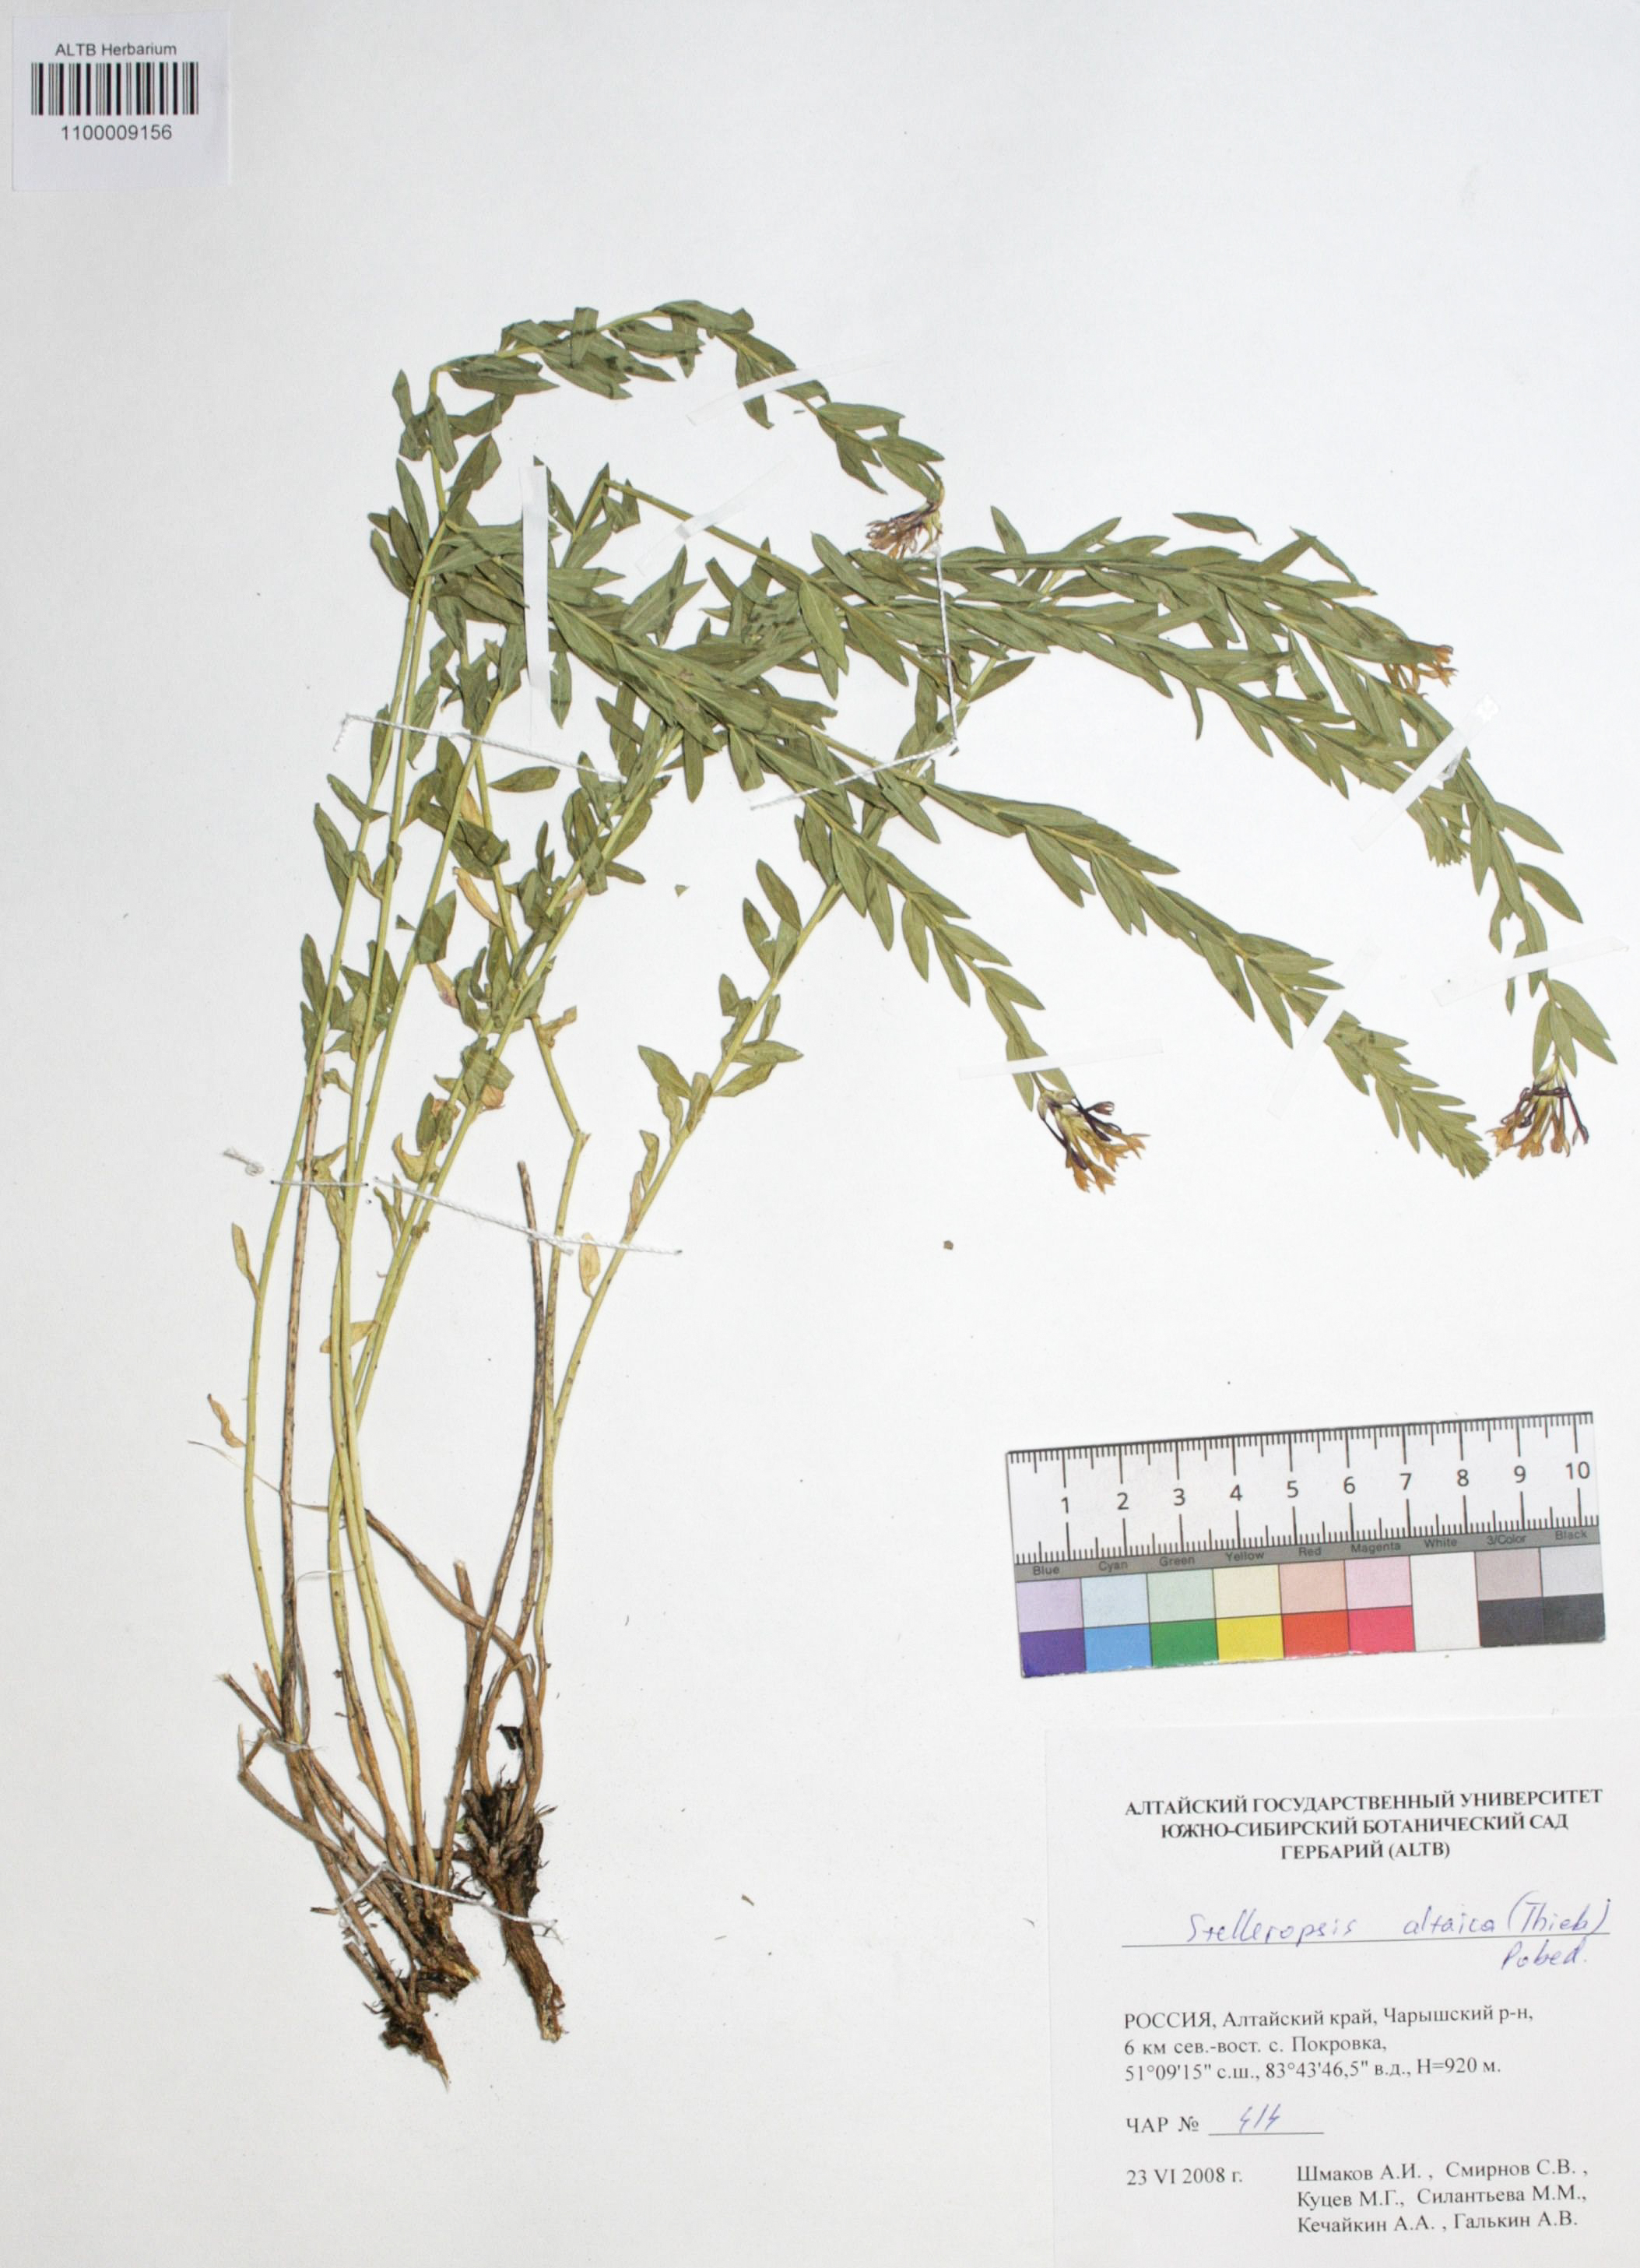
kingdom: Plantae
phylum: Tracheophyta
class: Magnoliopsida
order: Malvales
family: Thymelaeaceae
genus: Diarthron
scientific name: Diarthron altaicum
